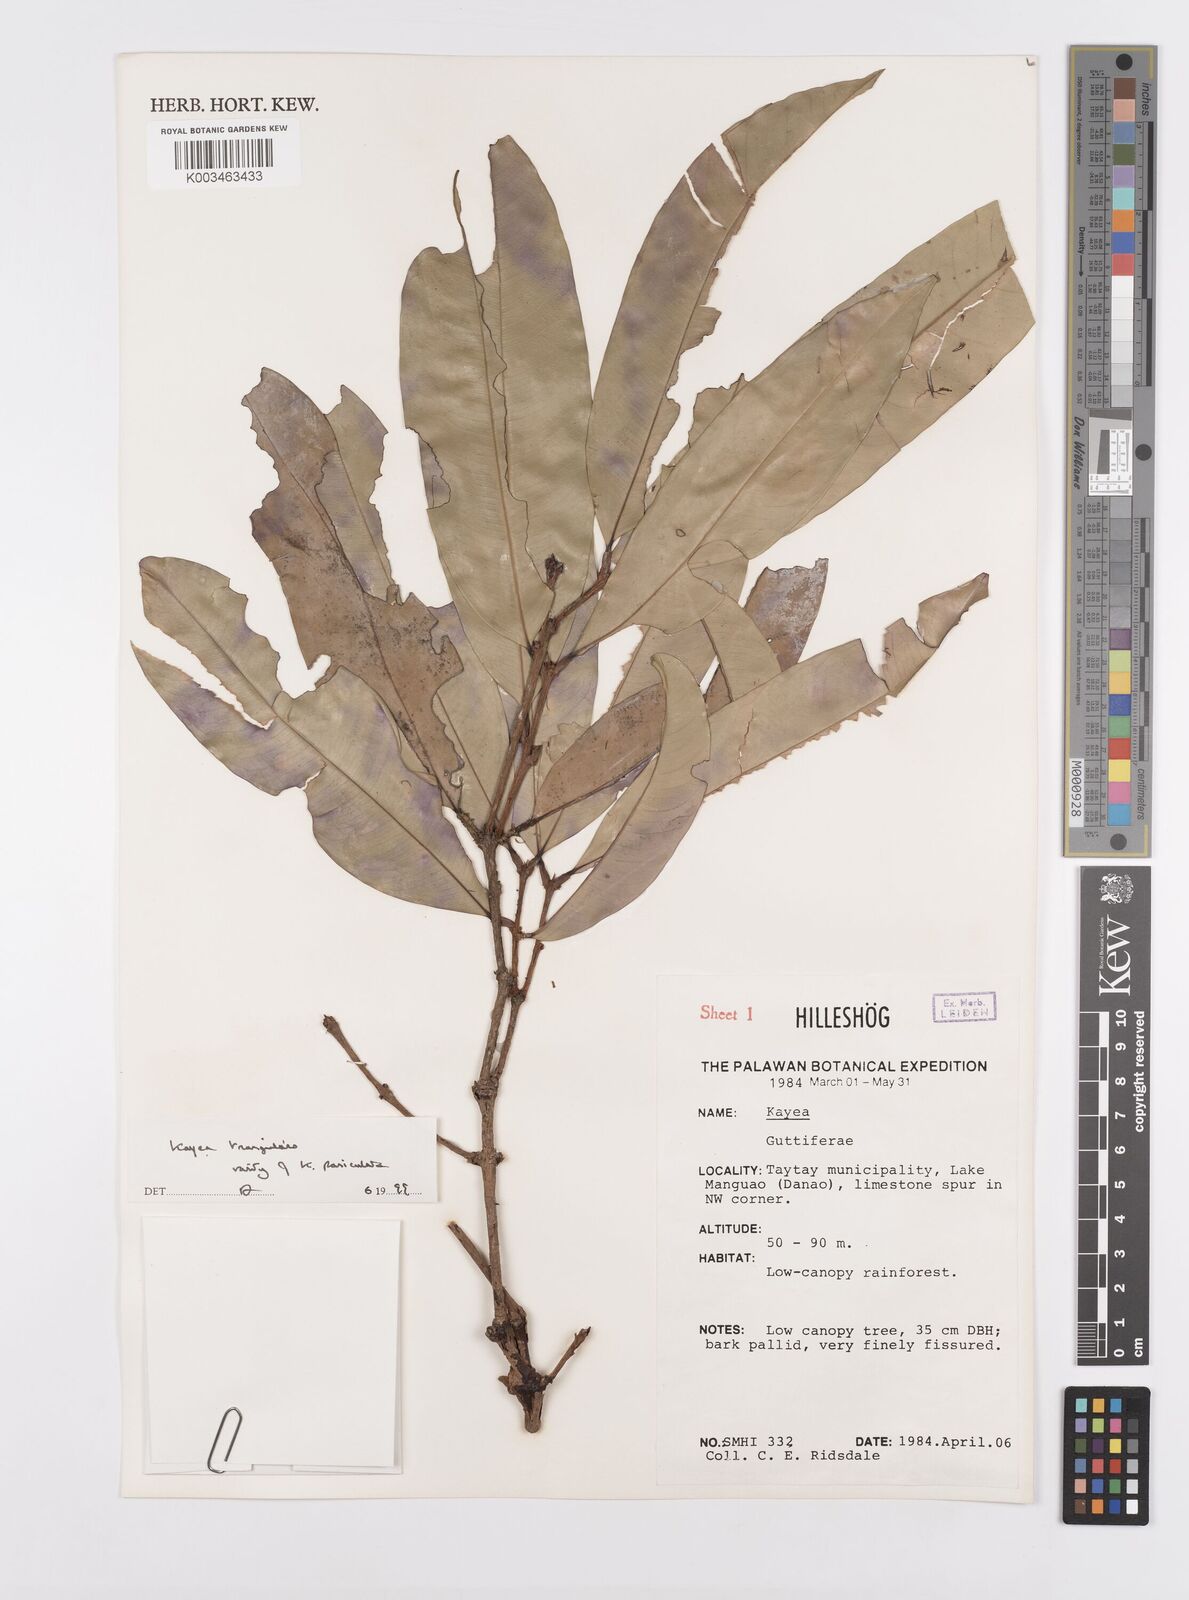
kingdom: Plantae
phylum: Tracheophyta
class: Magnoliopsida
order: Malpighiales
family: Calophyllaceae
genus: Kayea
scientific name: Kayea
